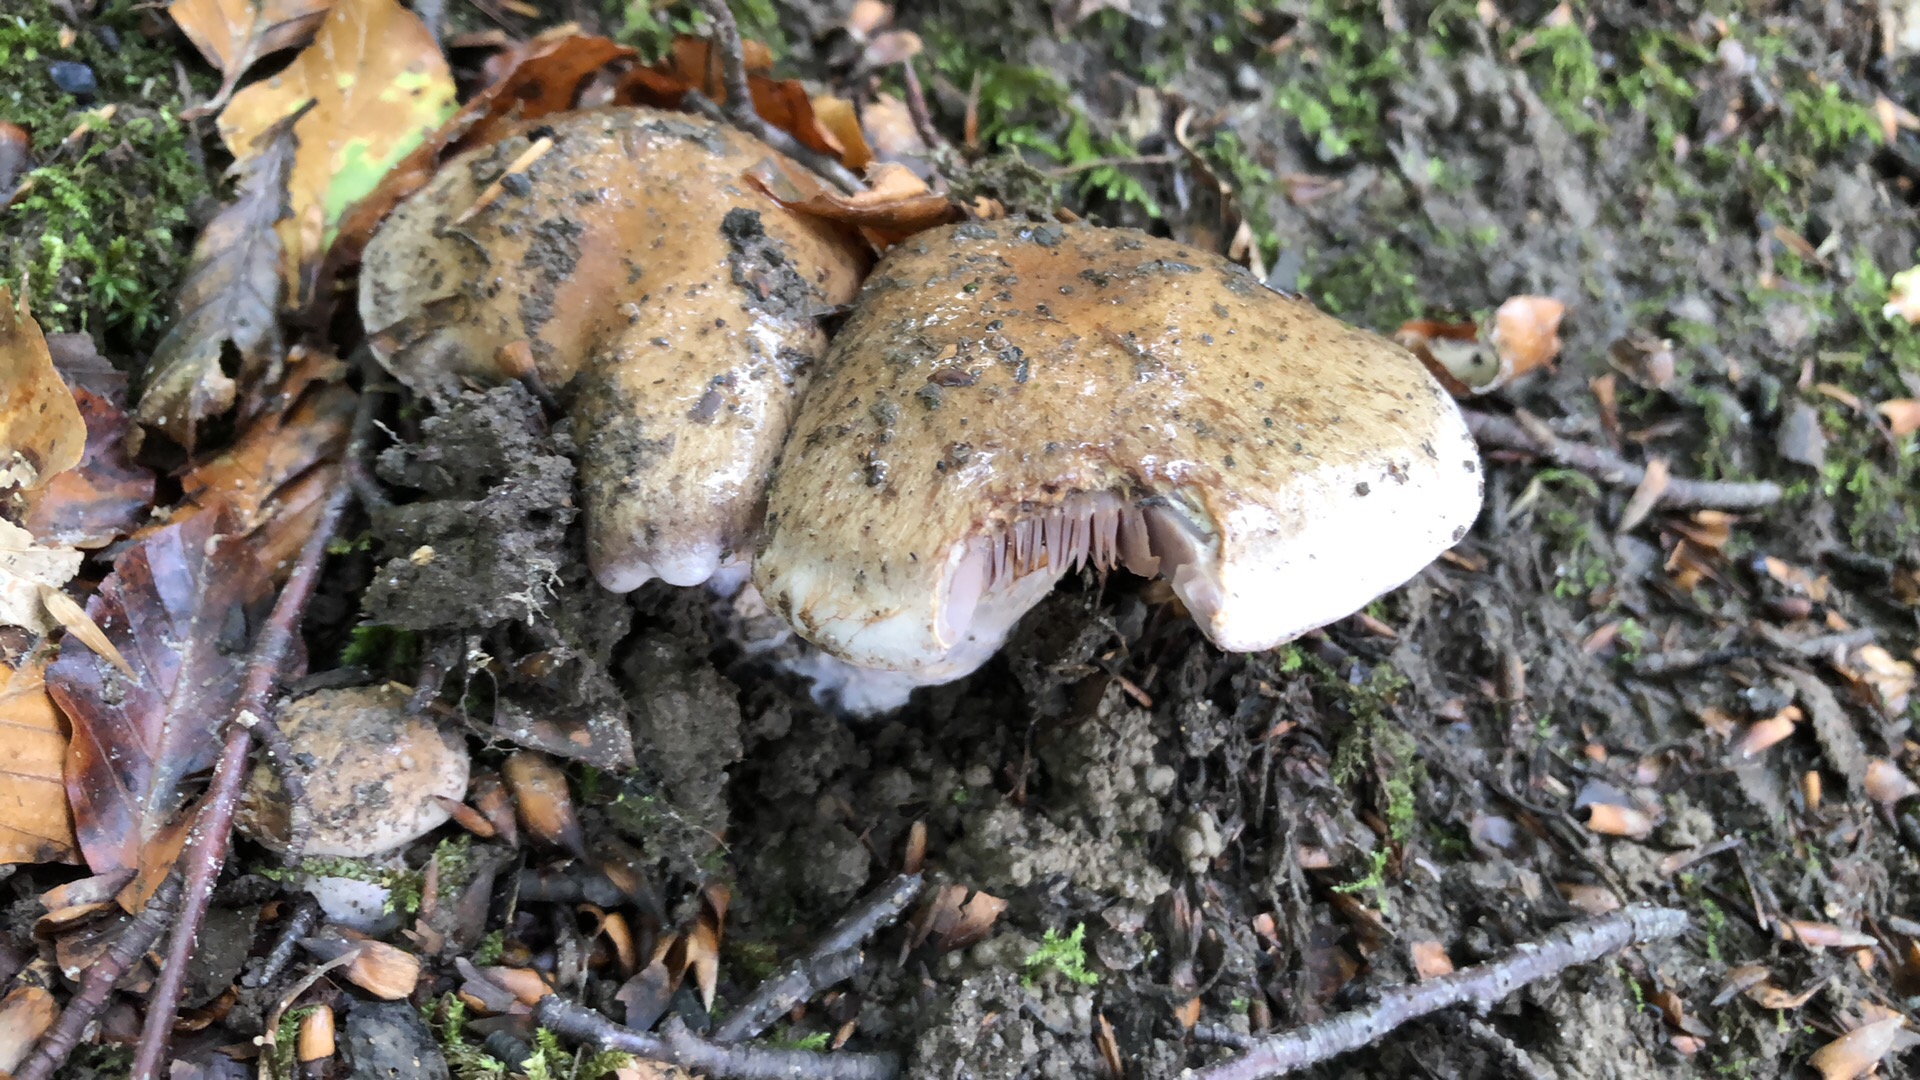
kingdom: Fungi
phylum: Basidiomycota
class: Agaricomycetes
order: Agaricales
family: Cortinariaceae
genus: Cortinarius
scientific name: Cortinarius largus
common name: violetrandet slørhat
